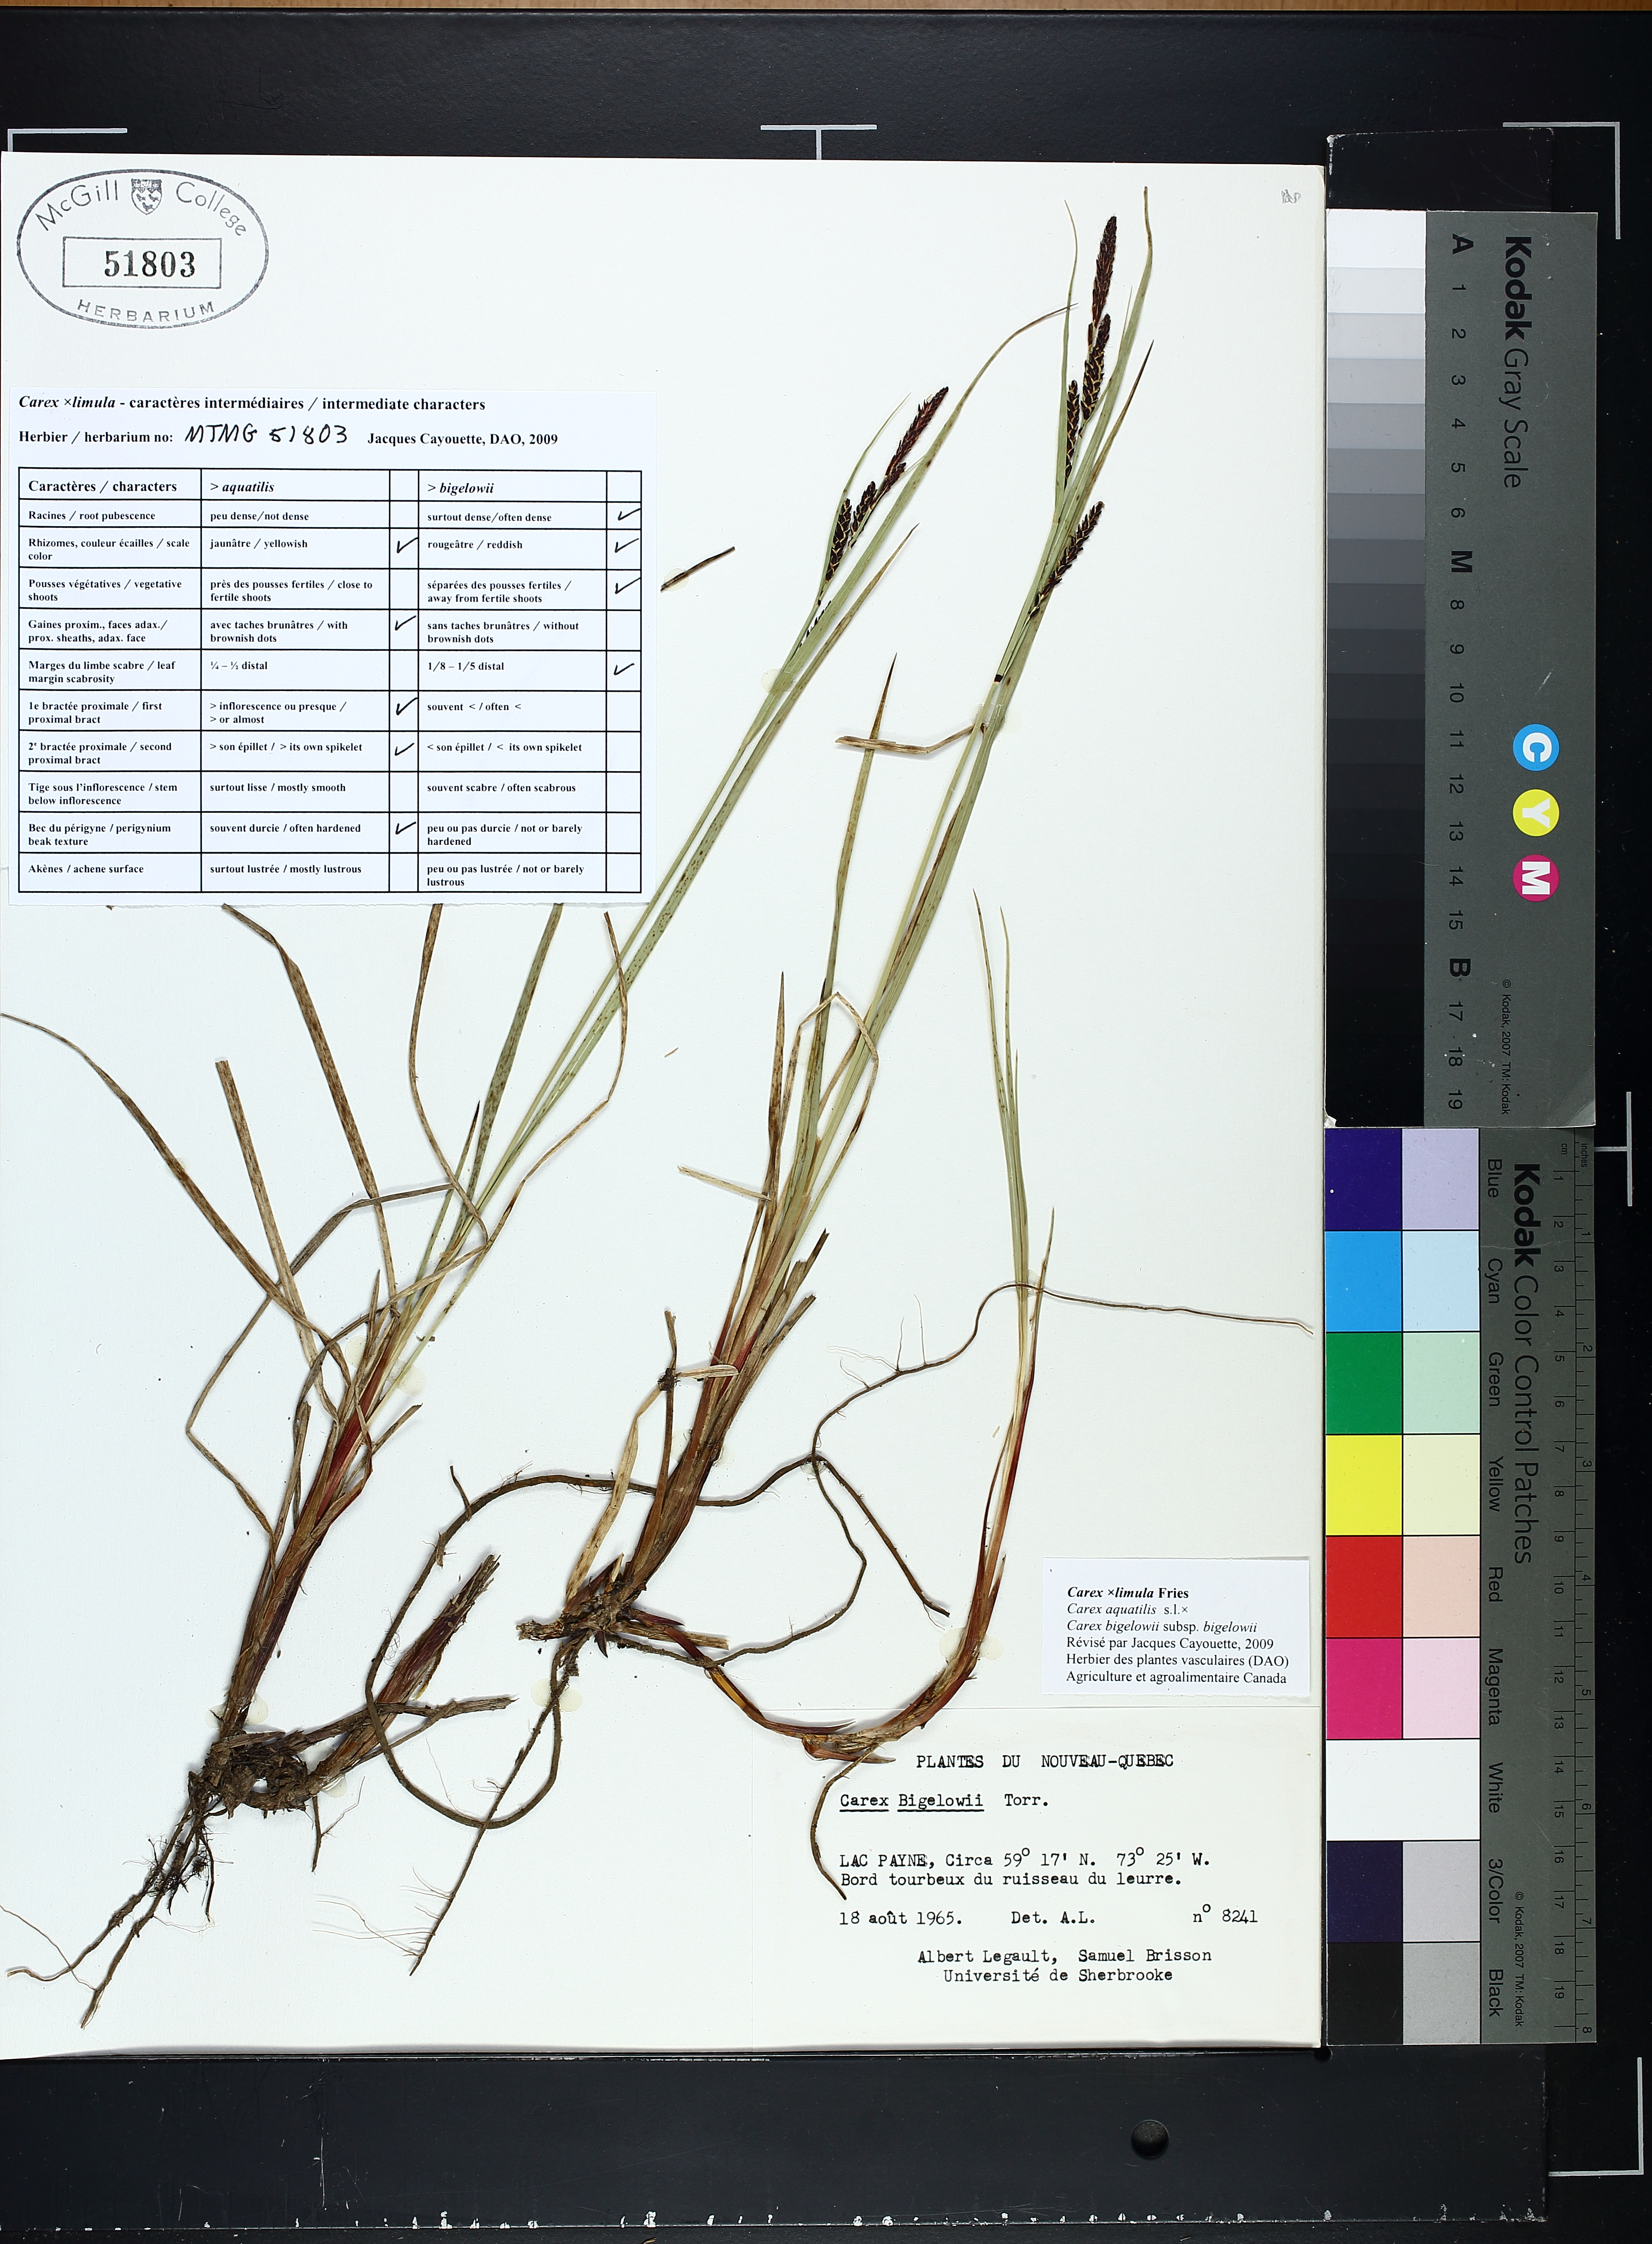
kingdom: Plantae
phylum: Tracheophyta
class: Liliopsida
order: Poales
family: Cyperaceae
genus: Carex
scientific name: Carex bigelowii
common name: Stiff sedge
